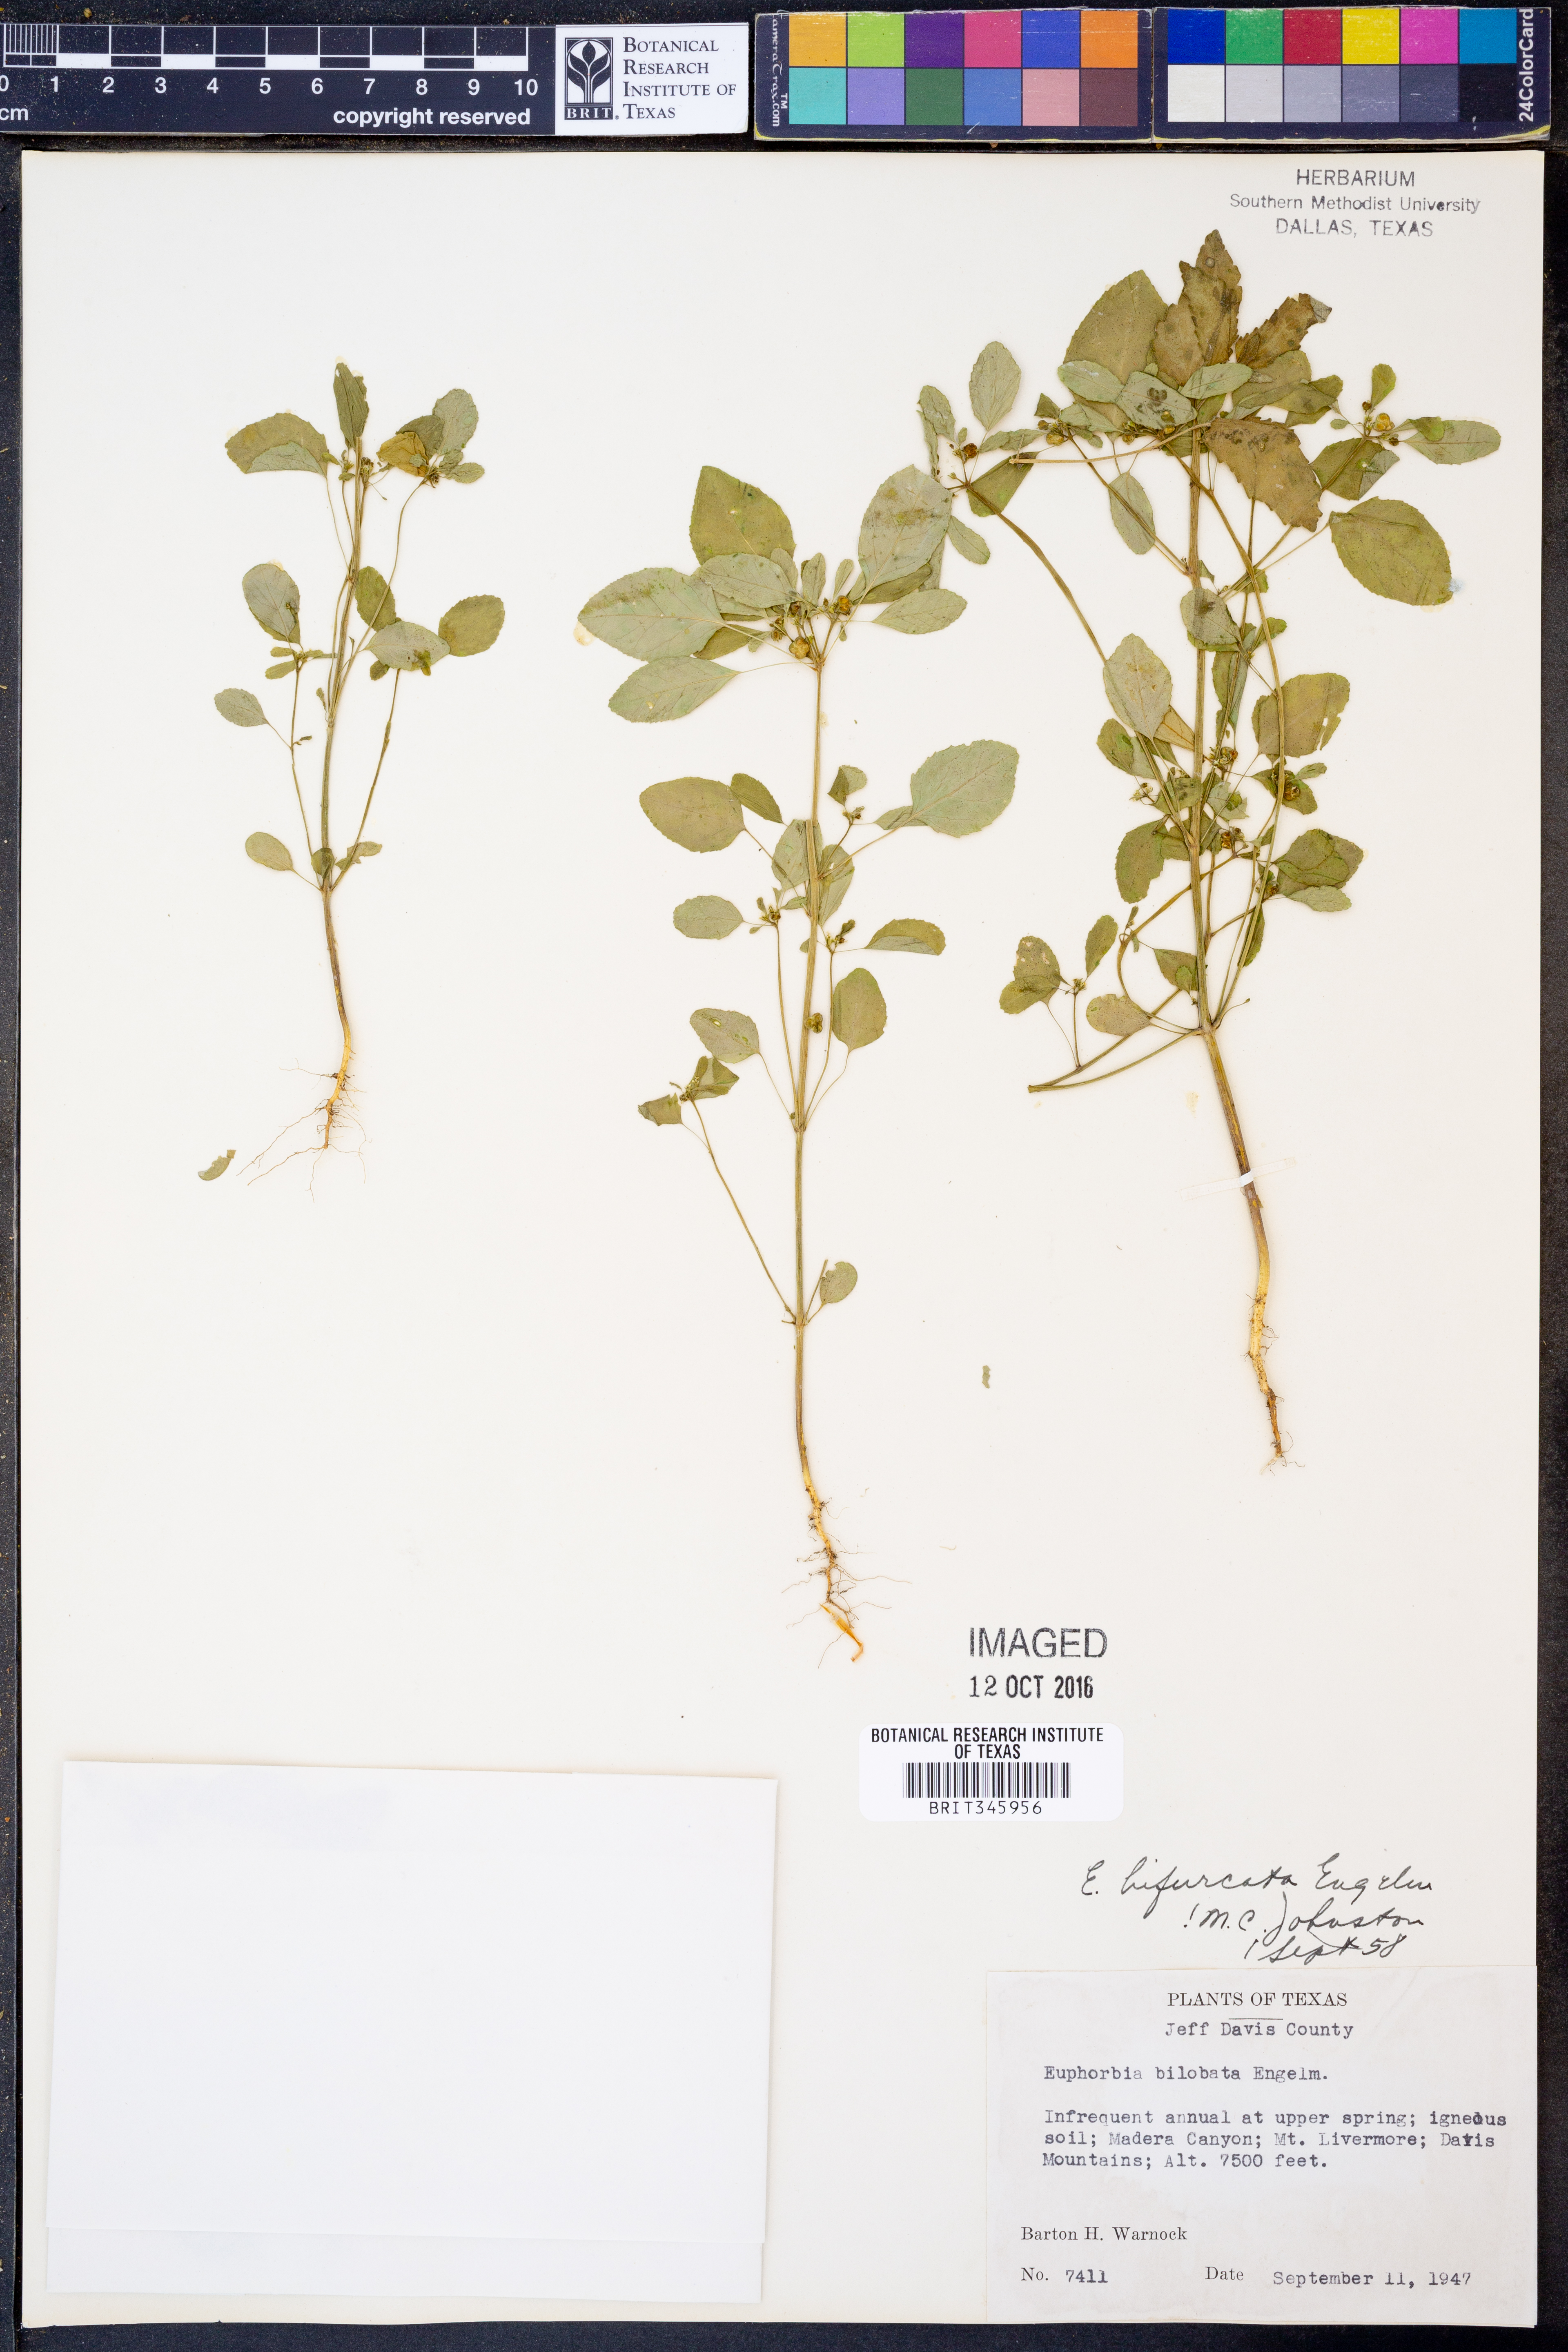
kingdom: Plantae
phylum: Tracheophyta
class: Magnoliopsida
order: Malpighiales
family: Euphorbiaceae
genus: Euphorbia
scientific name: Euphorbia bifurcata
